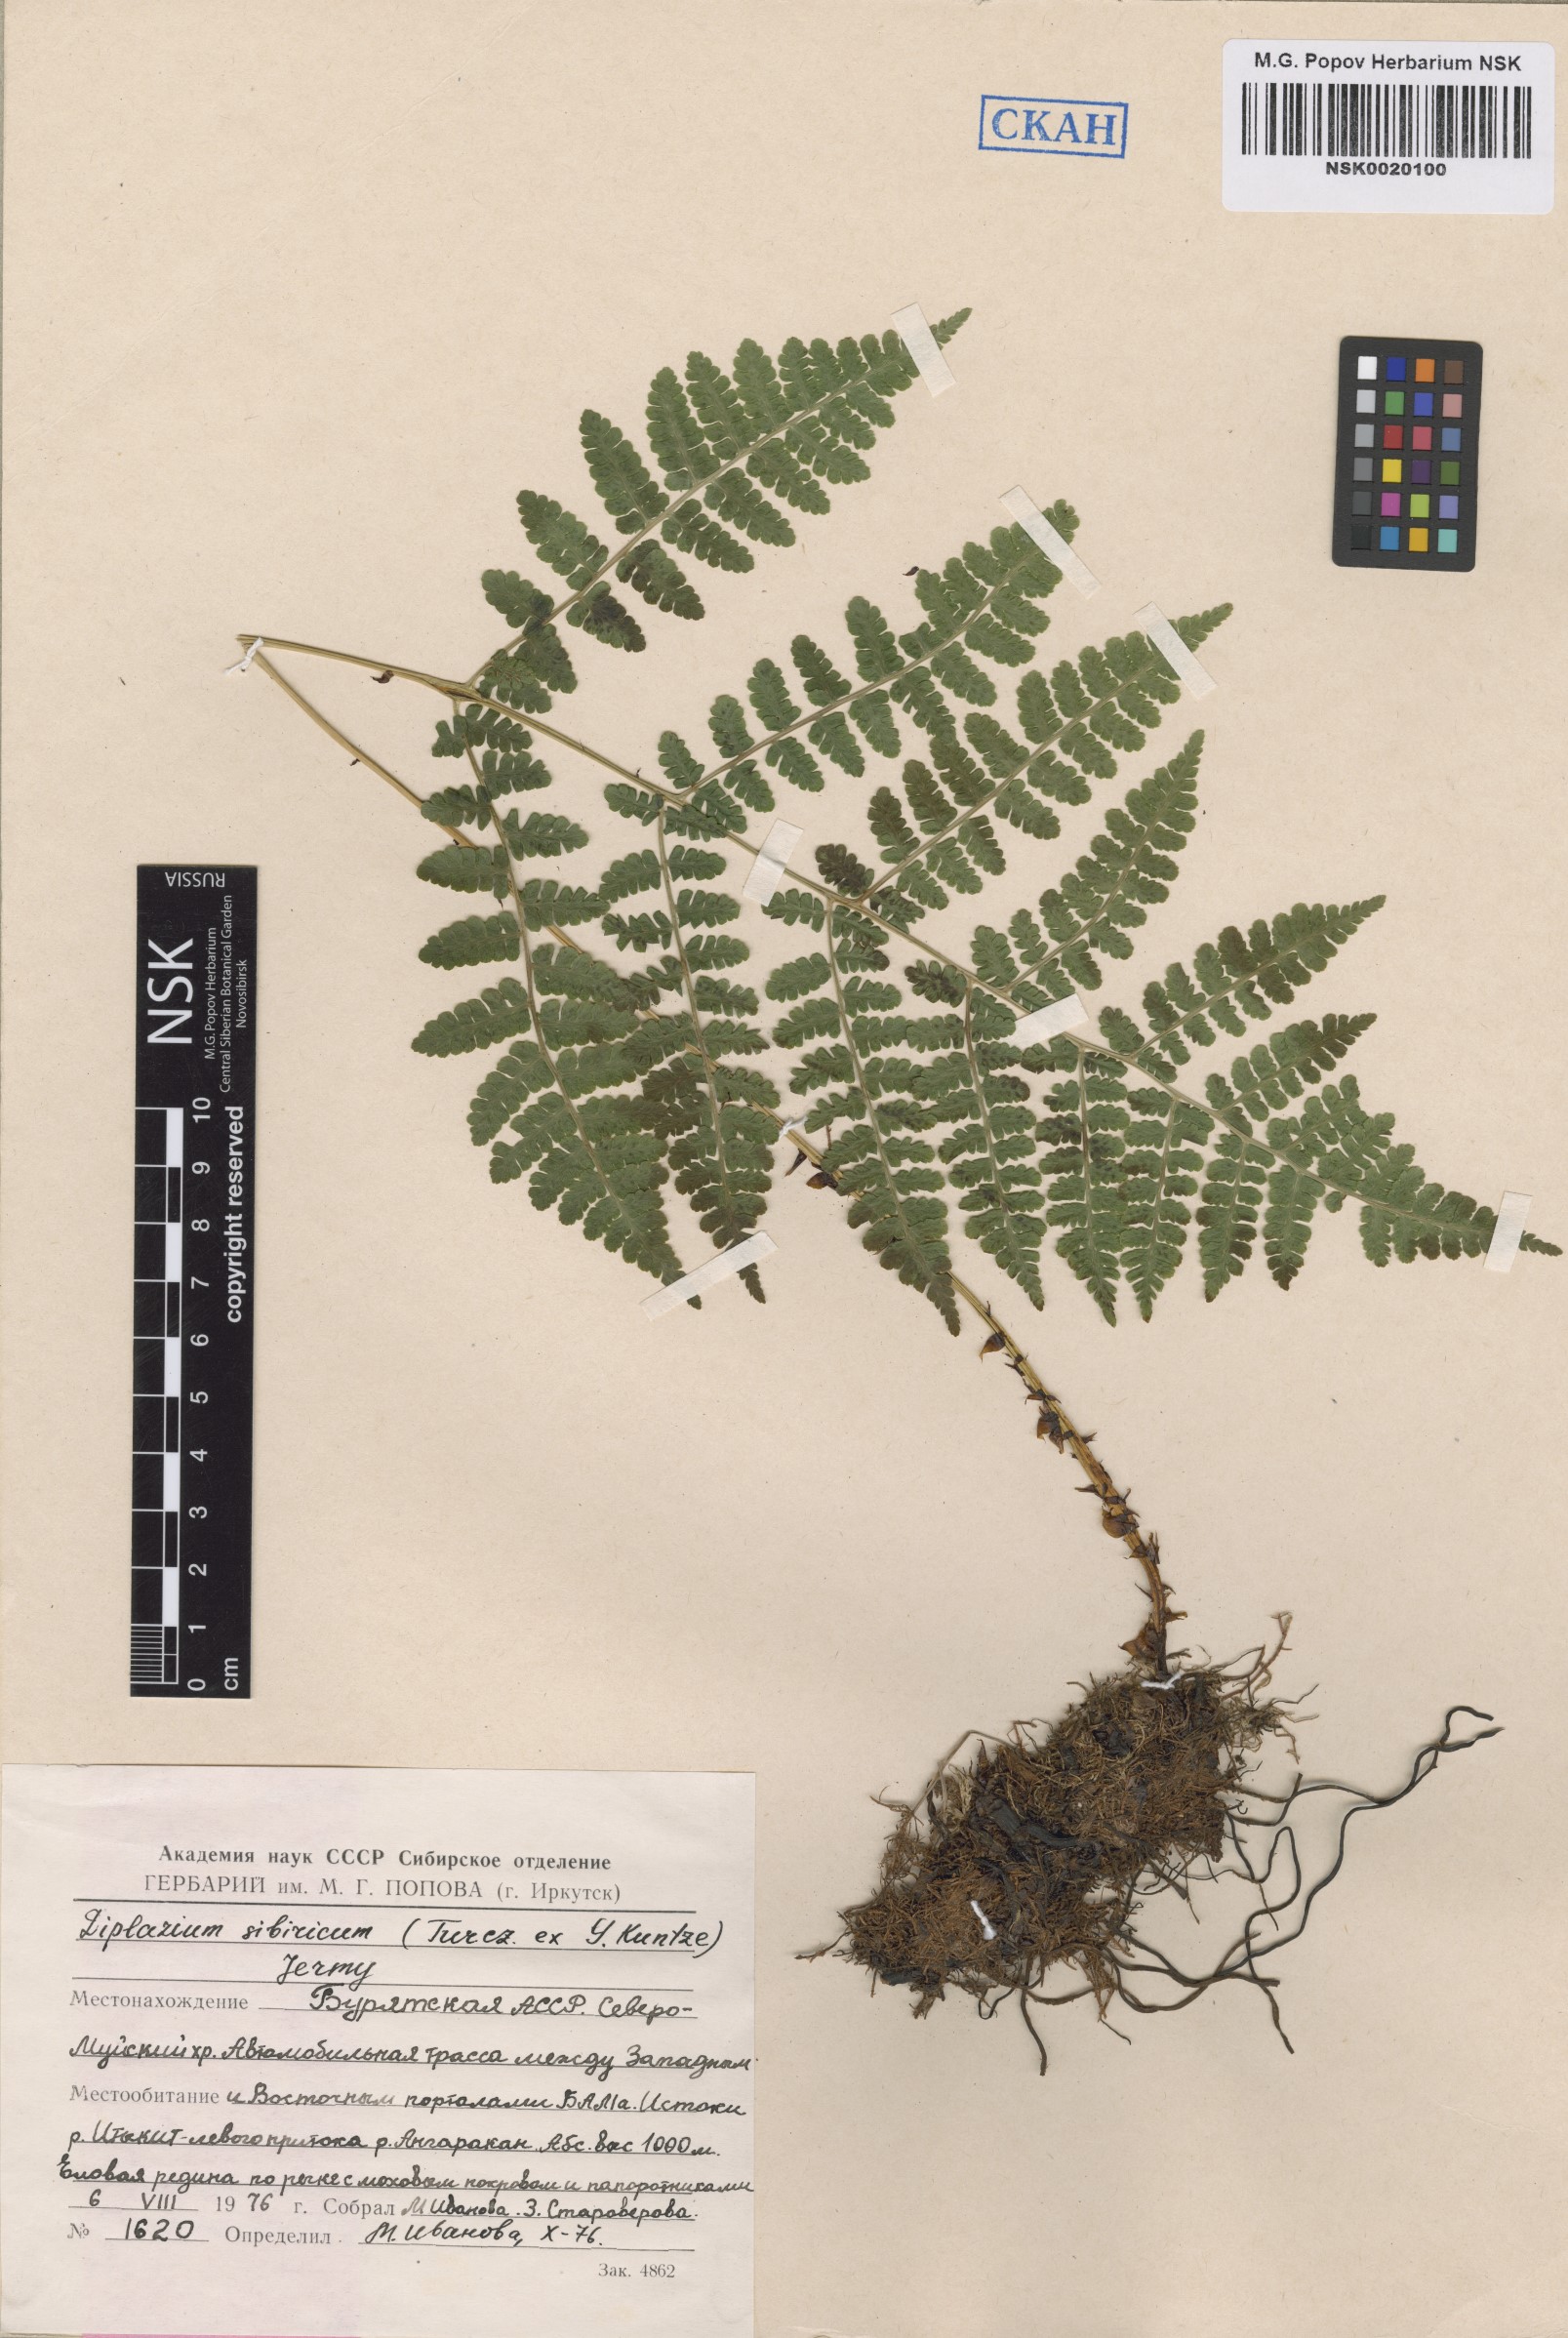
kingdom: Plantae
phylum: Tracheophyta
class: Polypodiopsida
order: Polypodiales
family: Athyriaceae
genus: Diplazium
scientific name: Diplazium sibiricum
